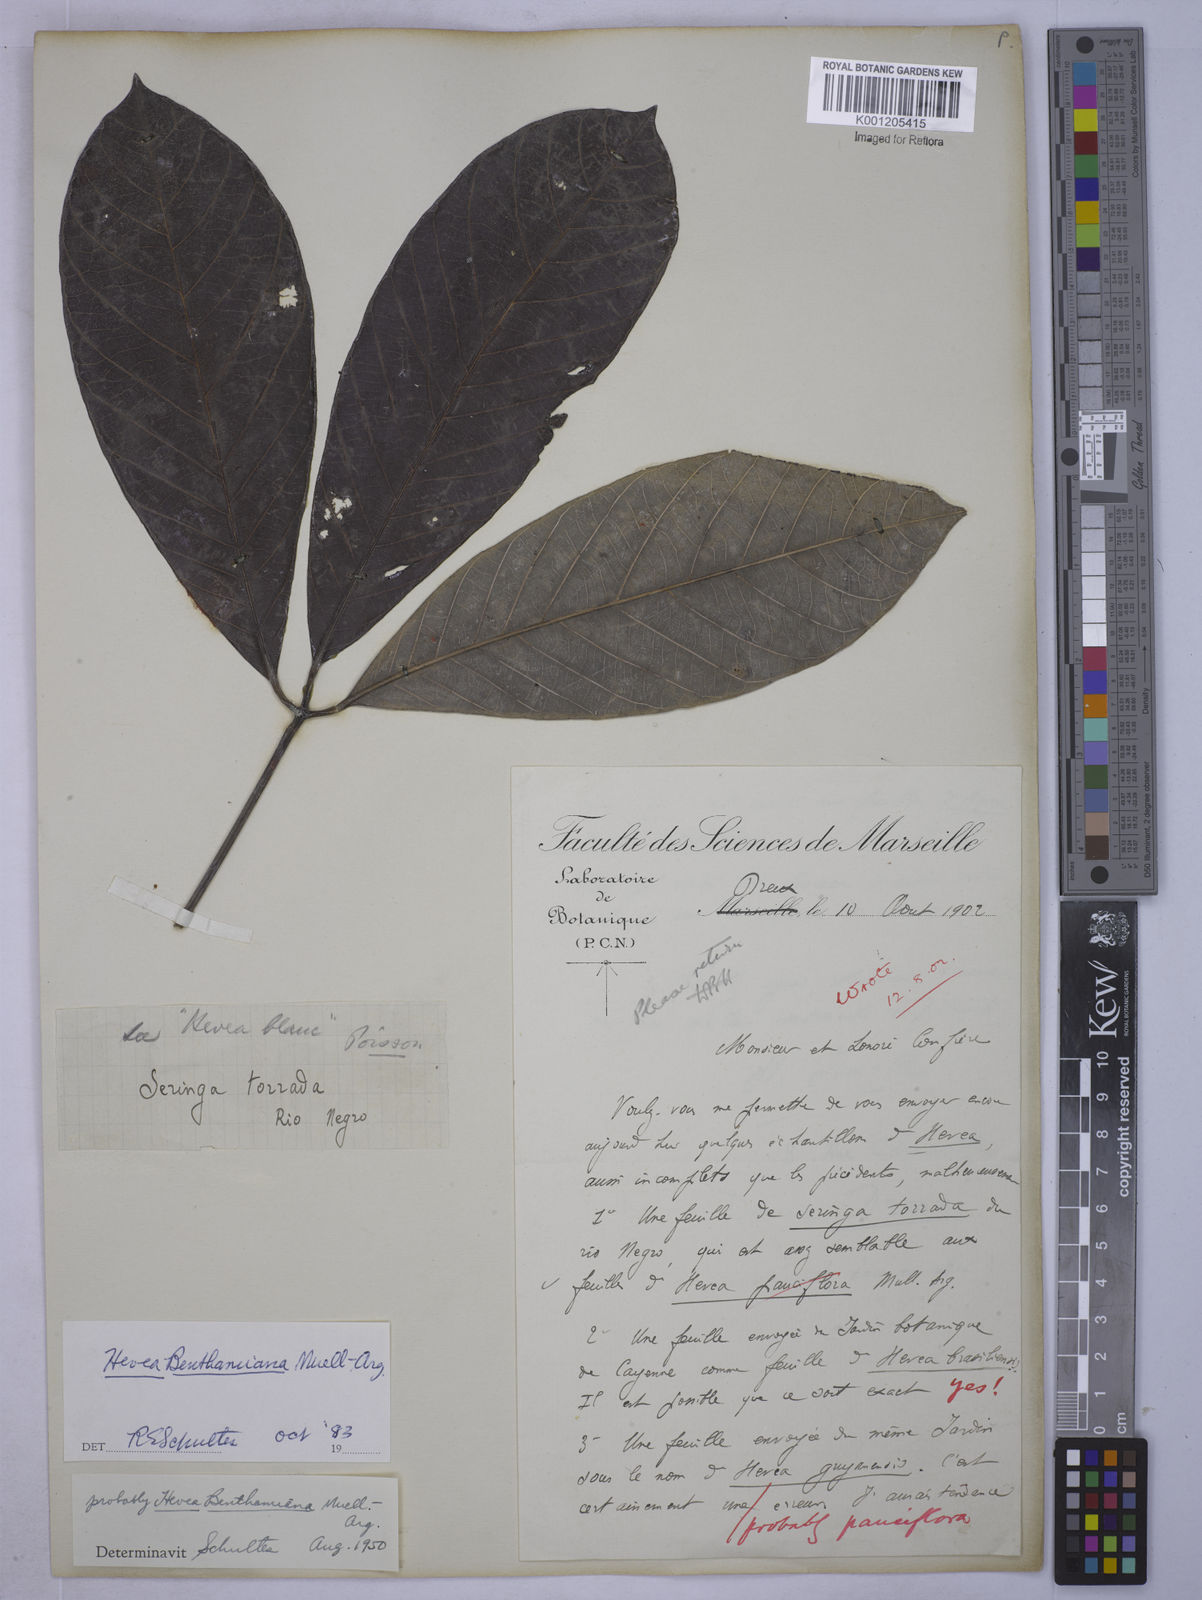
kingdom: Plantae
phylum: Tracheophyta
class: Magnoliopsida
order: Malpighiales
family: Euphorbiaceae
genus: Hevea
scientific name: Hevea
